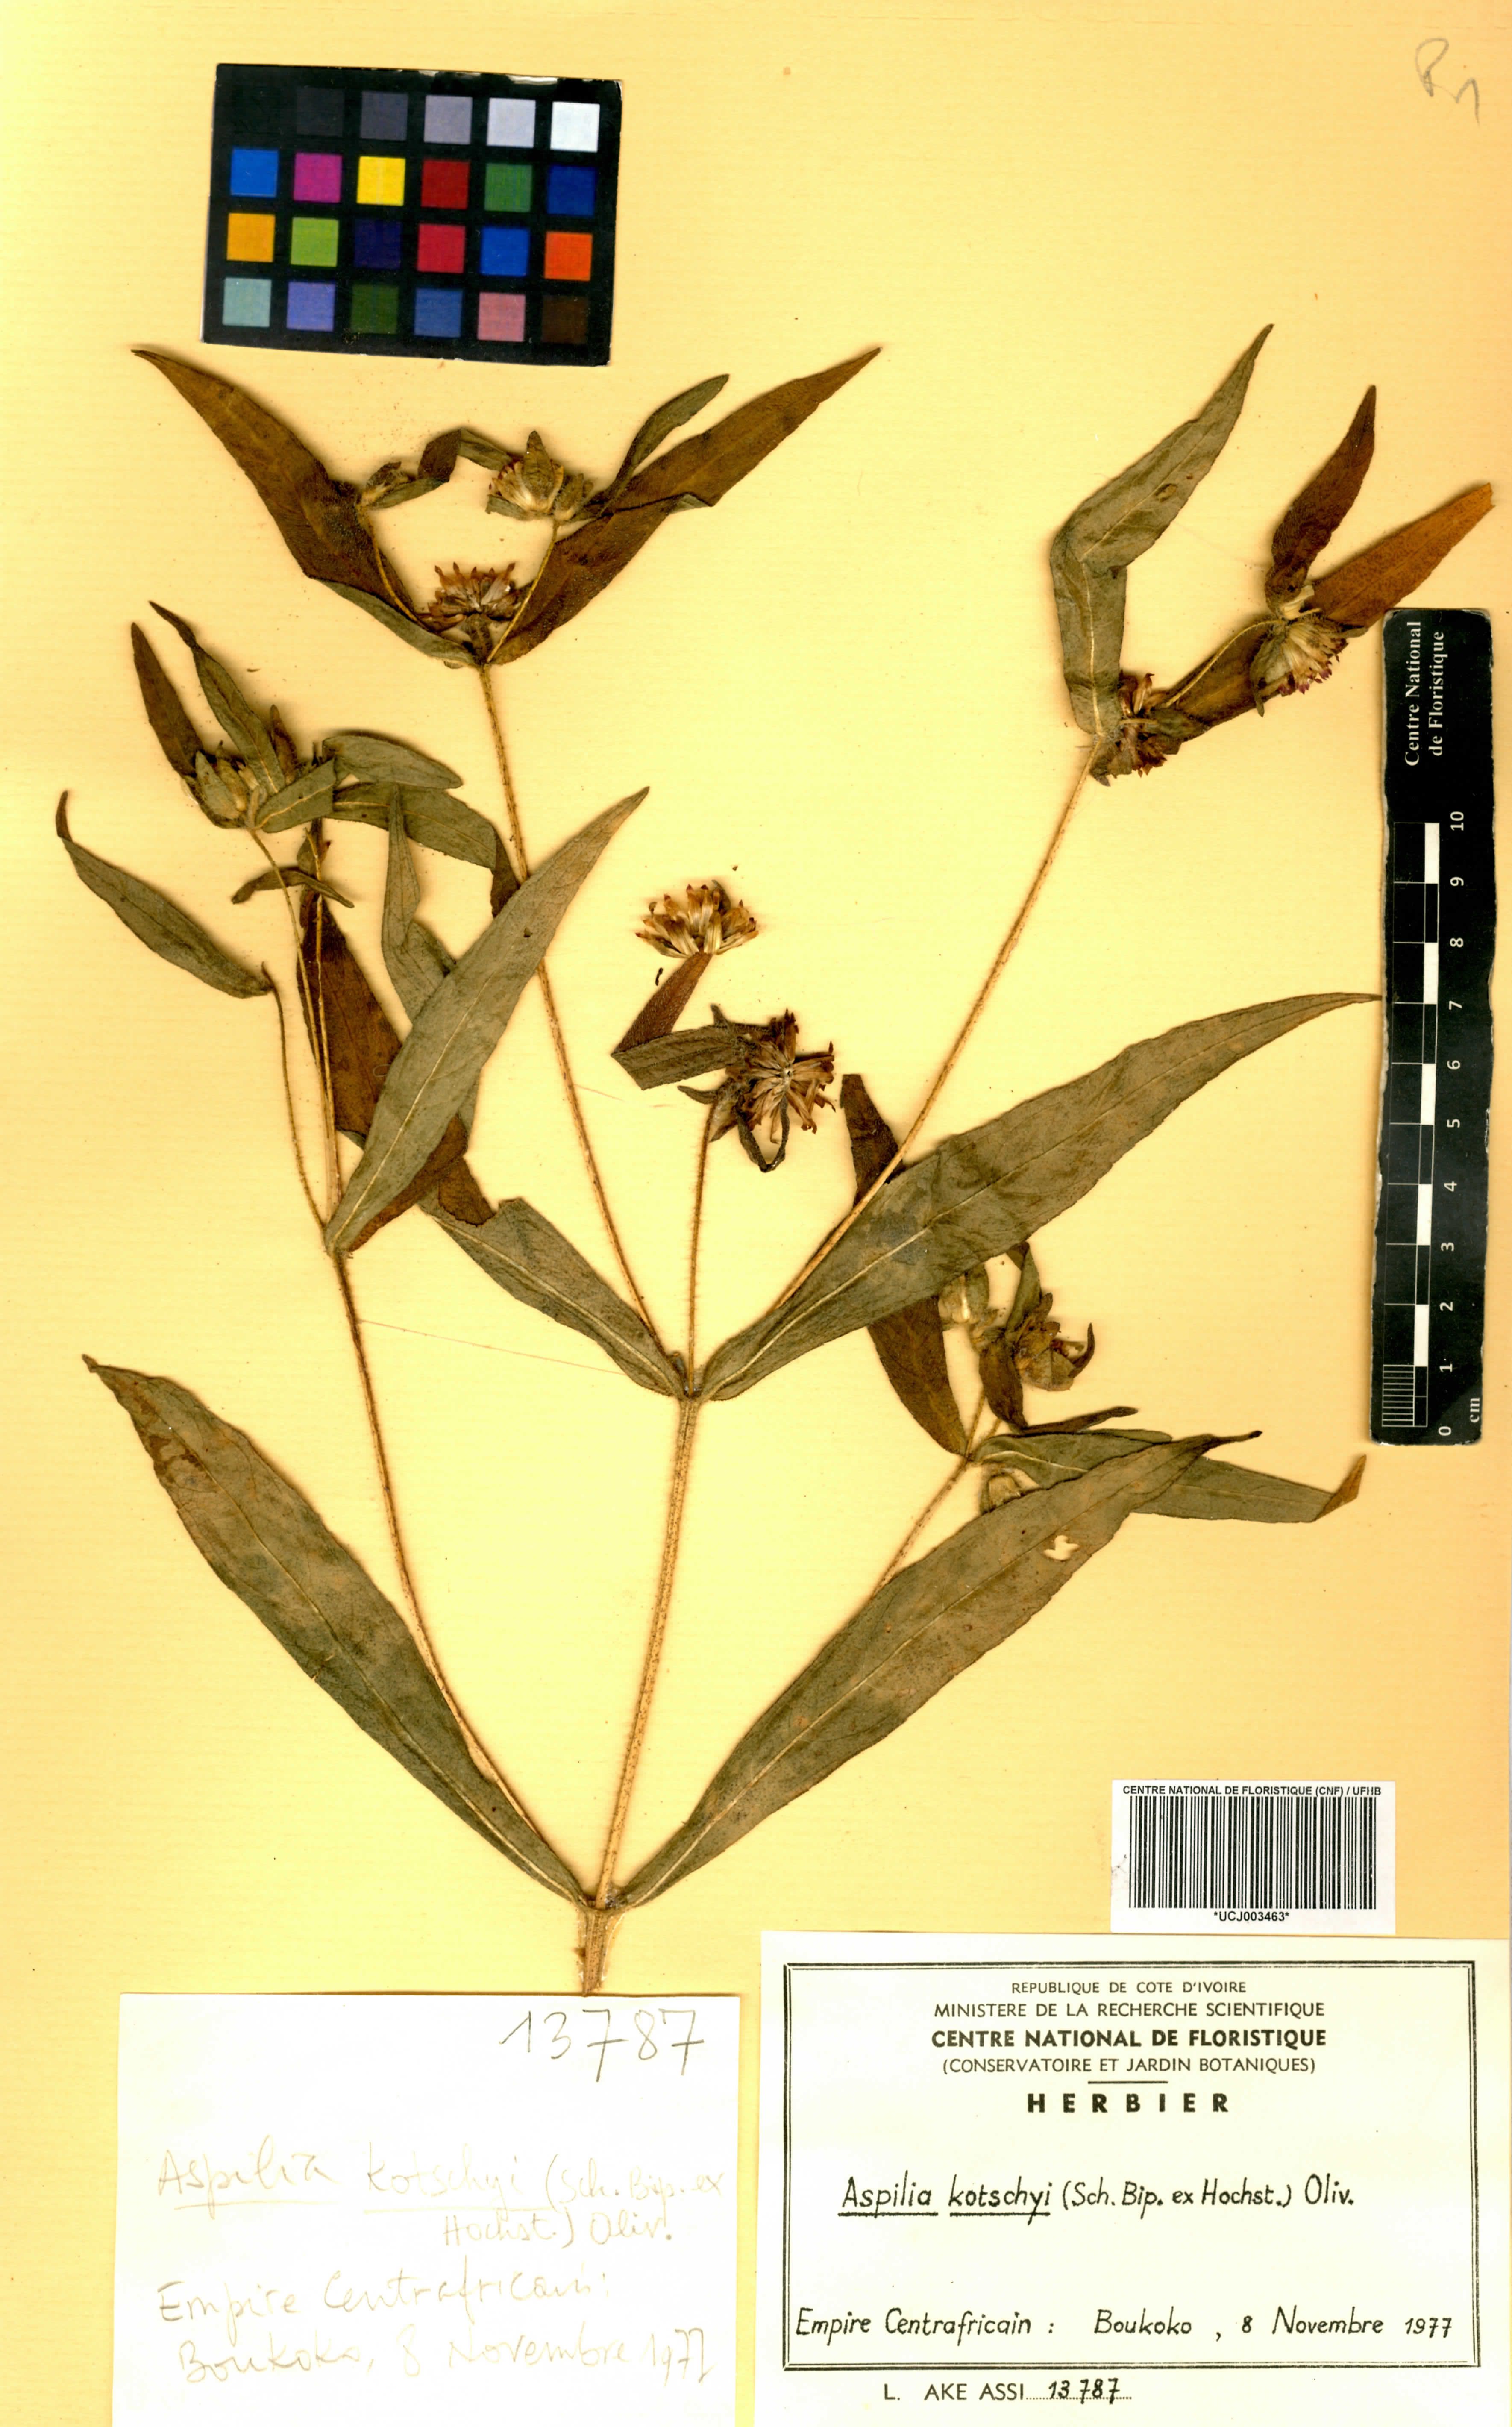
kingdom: Plantae
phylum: Tracheophyta
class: Magnoliopsida
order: Asterales
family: Asteraceae
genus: Aspilia
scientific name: Aspilia kotschyi
